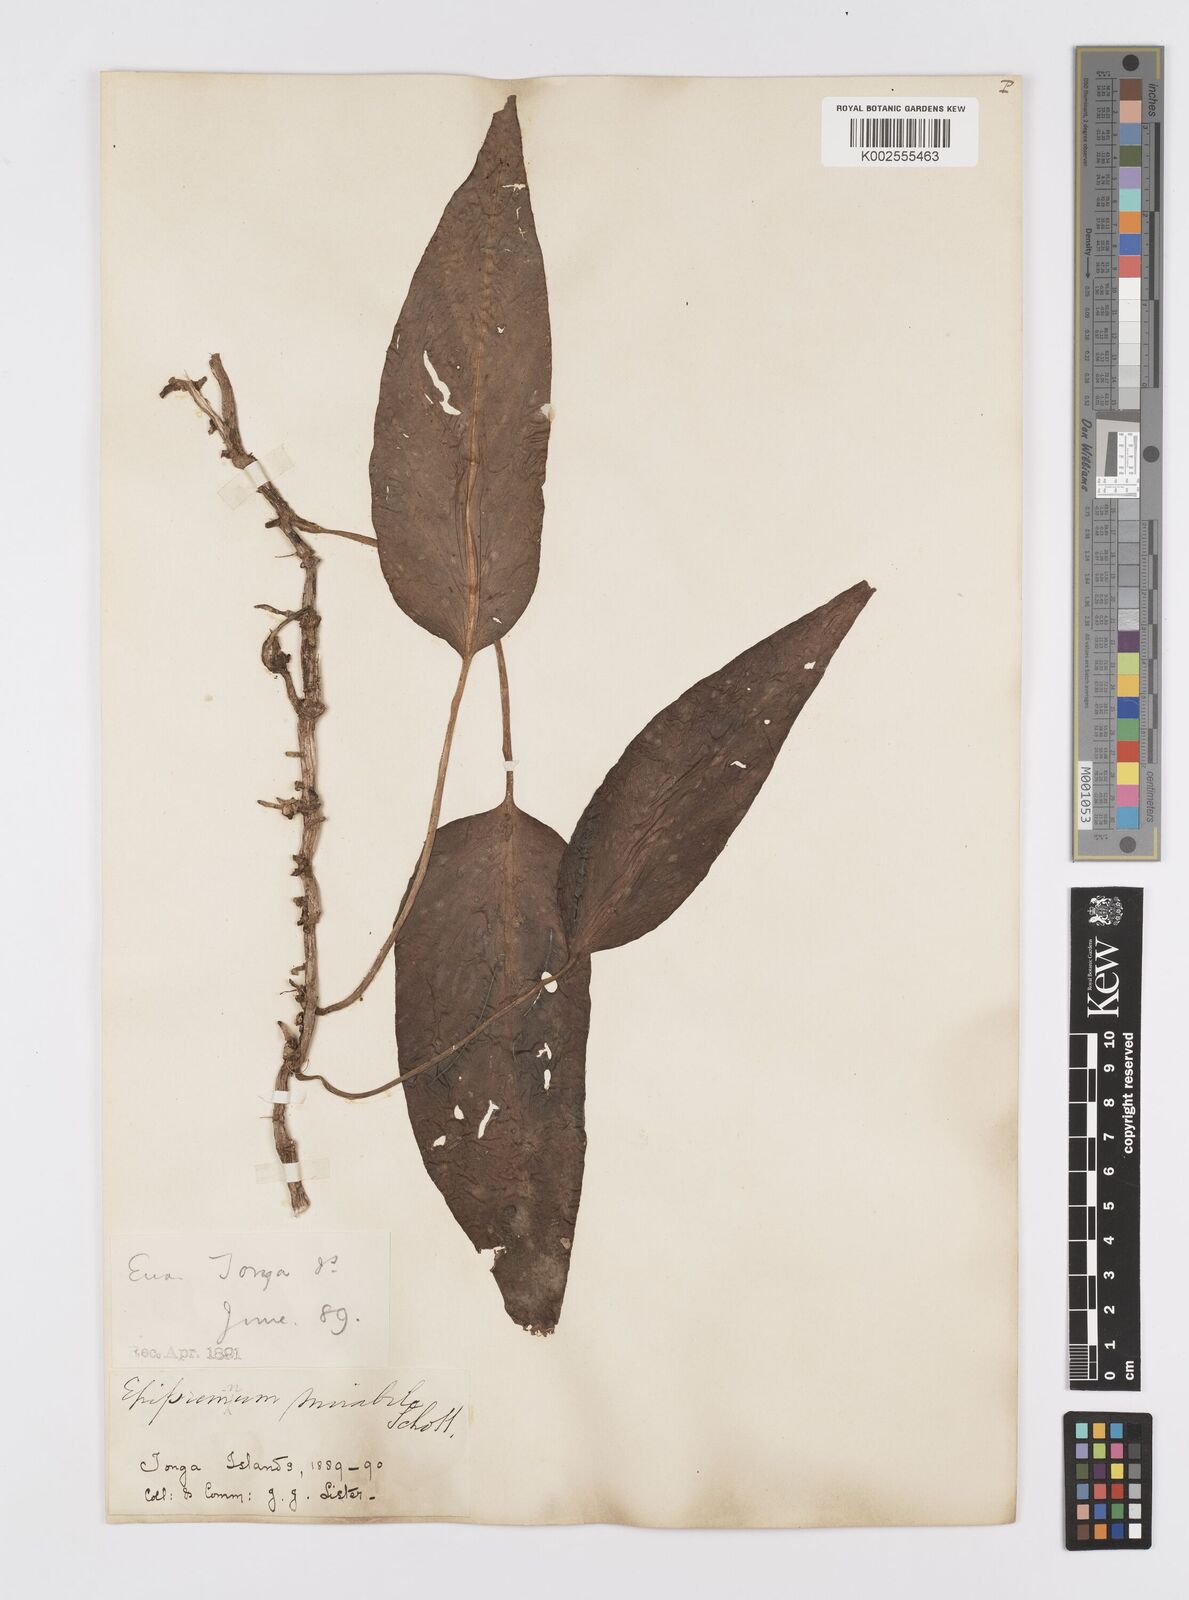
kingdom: Plantae
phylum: Tracheophyta
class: Liliopsida
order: Alismatales
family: Araceae
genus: Epipremnum
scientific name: Epipremnum pinnatum
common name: Centipede tongavine
